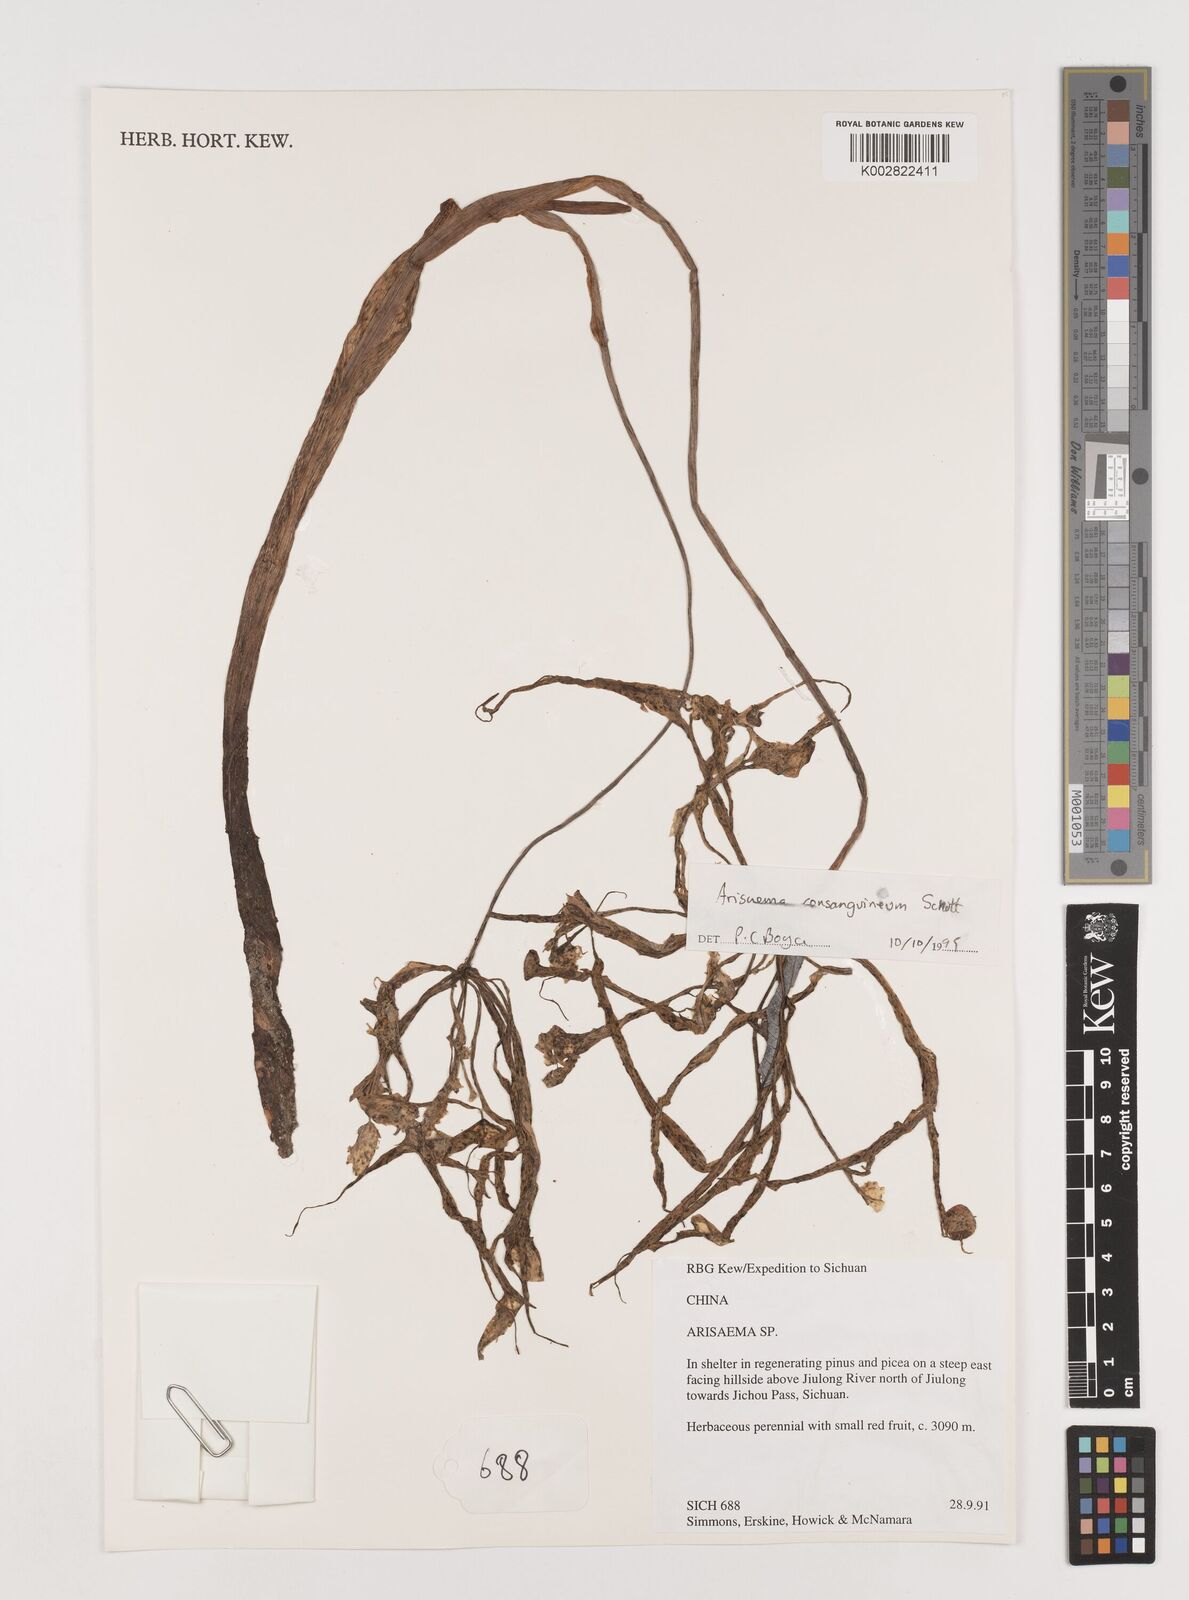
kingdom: Plantae
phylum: Tracheophyta
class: Liliopsida
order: Alismatales
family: Araceae
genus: Arisaema
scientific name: Arisaema erubescens
